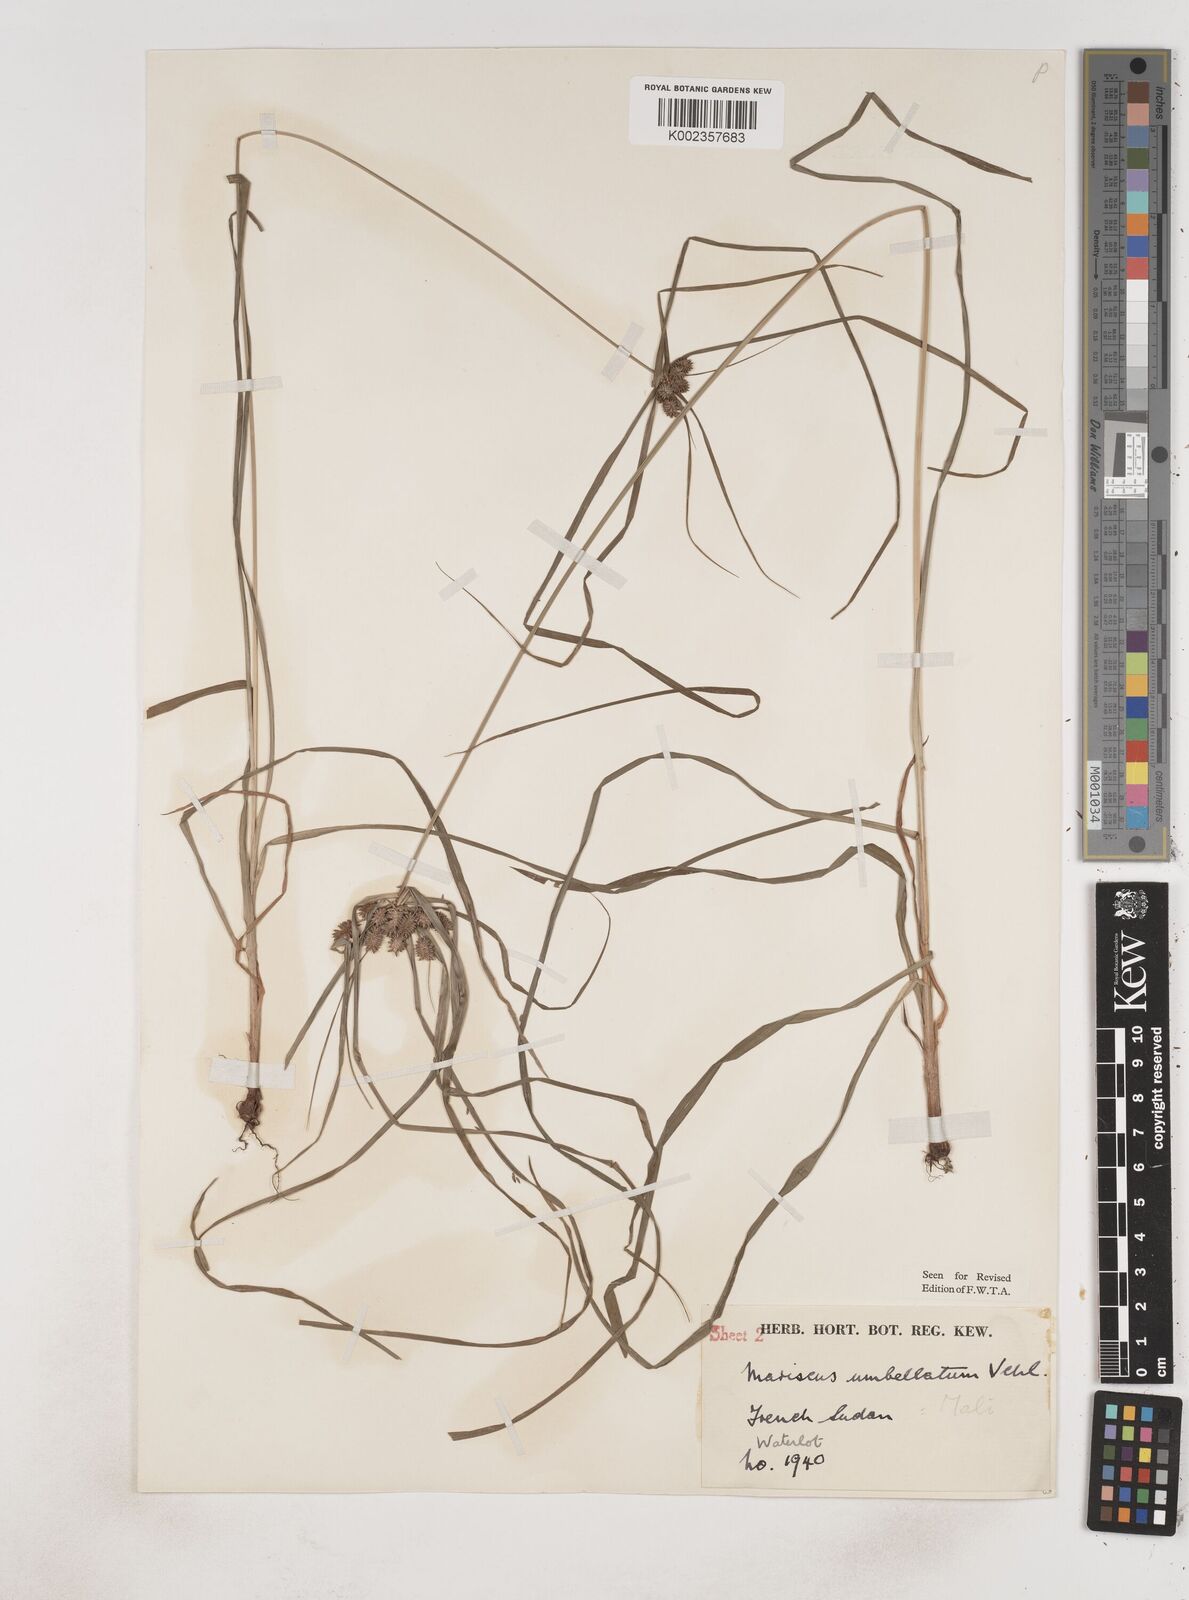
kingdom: Plantae
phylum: Tracheophyta
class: Liliopsida
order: Poales
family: Cyperaceae
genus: Cyperus
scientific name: Cyperus sublimis
